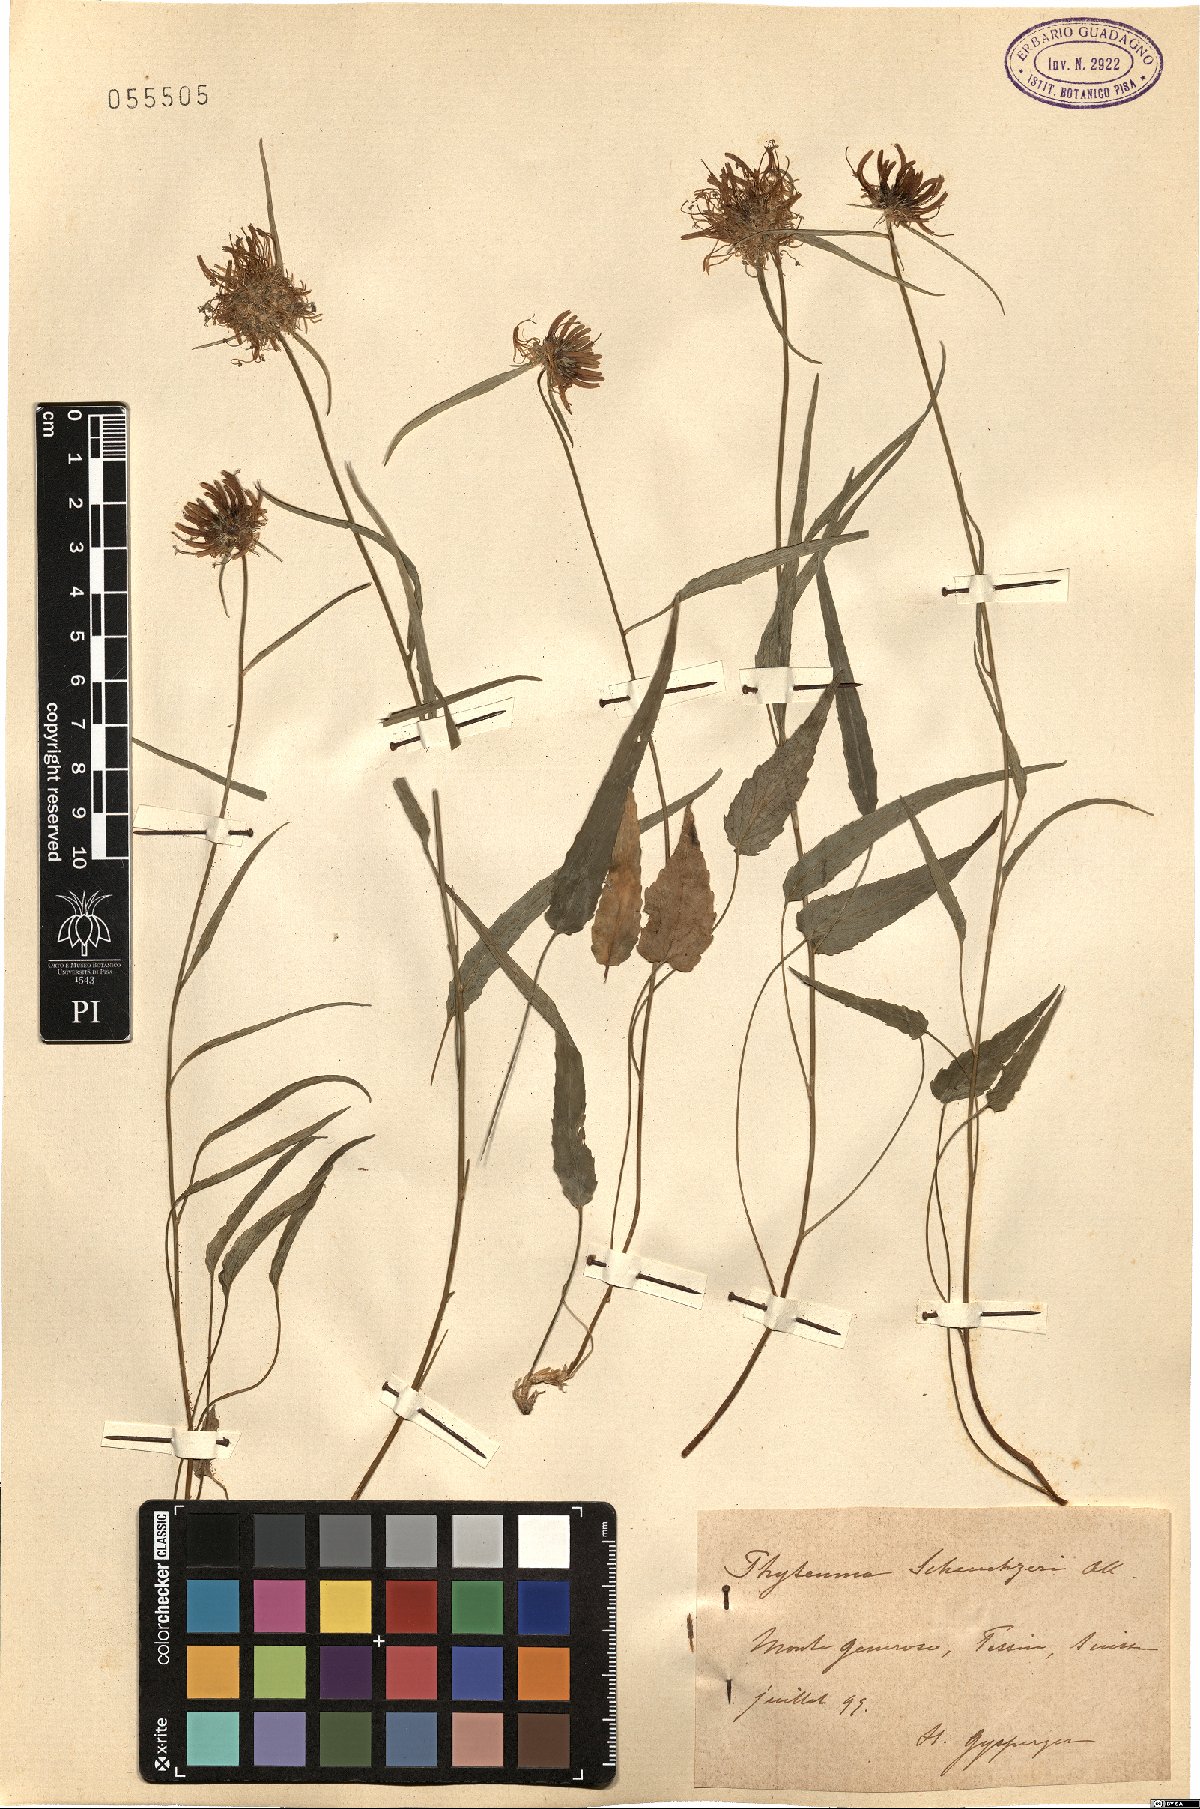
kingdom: Plantae
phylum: Tracheophyta
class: Magnoliopsida
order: Asterales
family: Campanulaceae
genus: Phyteuma
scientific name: Phyteuma scheuchzeri
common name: Oxford rampion
